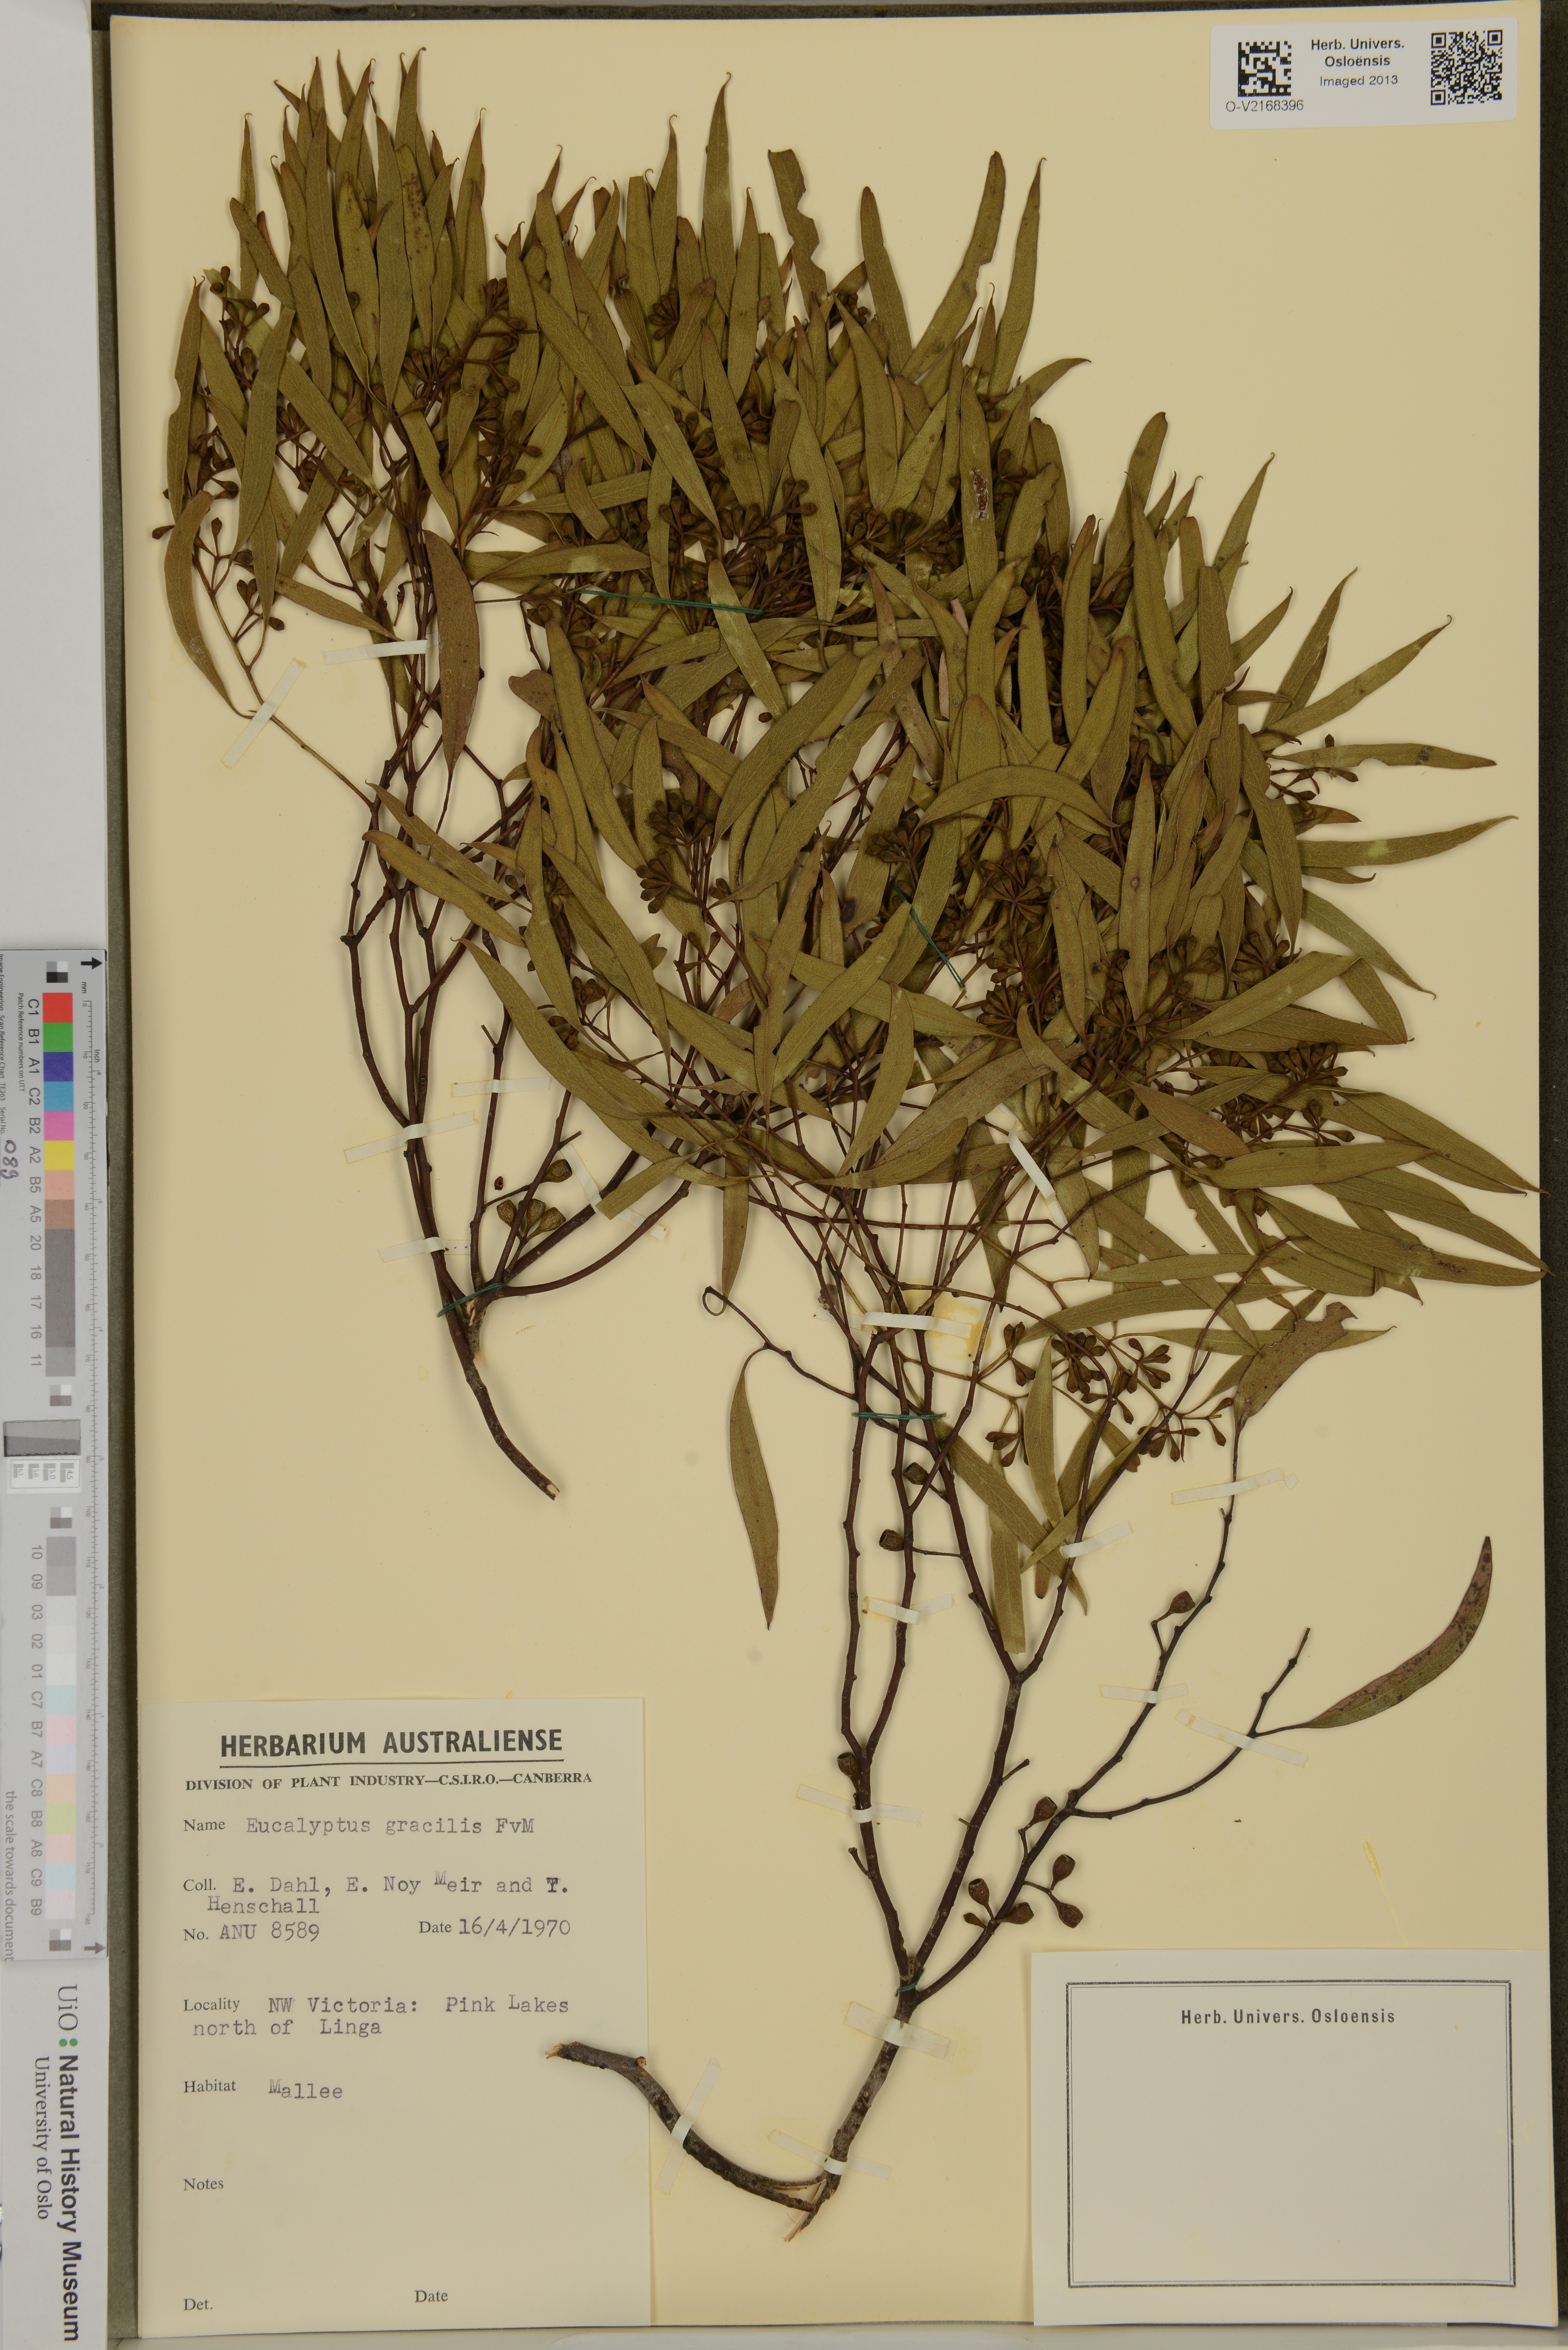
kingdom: Plantae
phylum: Tracheophyta
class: Magnoliopsida
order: Myrtales
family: Myrtaceae
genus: Eucalyptus
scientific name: Eucalyptus gracilis
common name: White mallee
